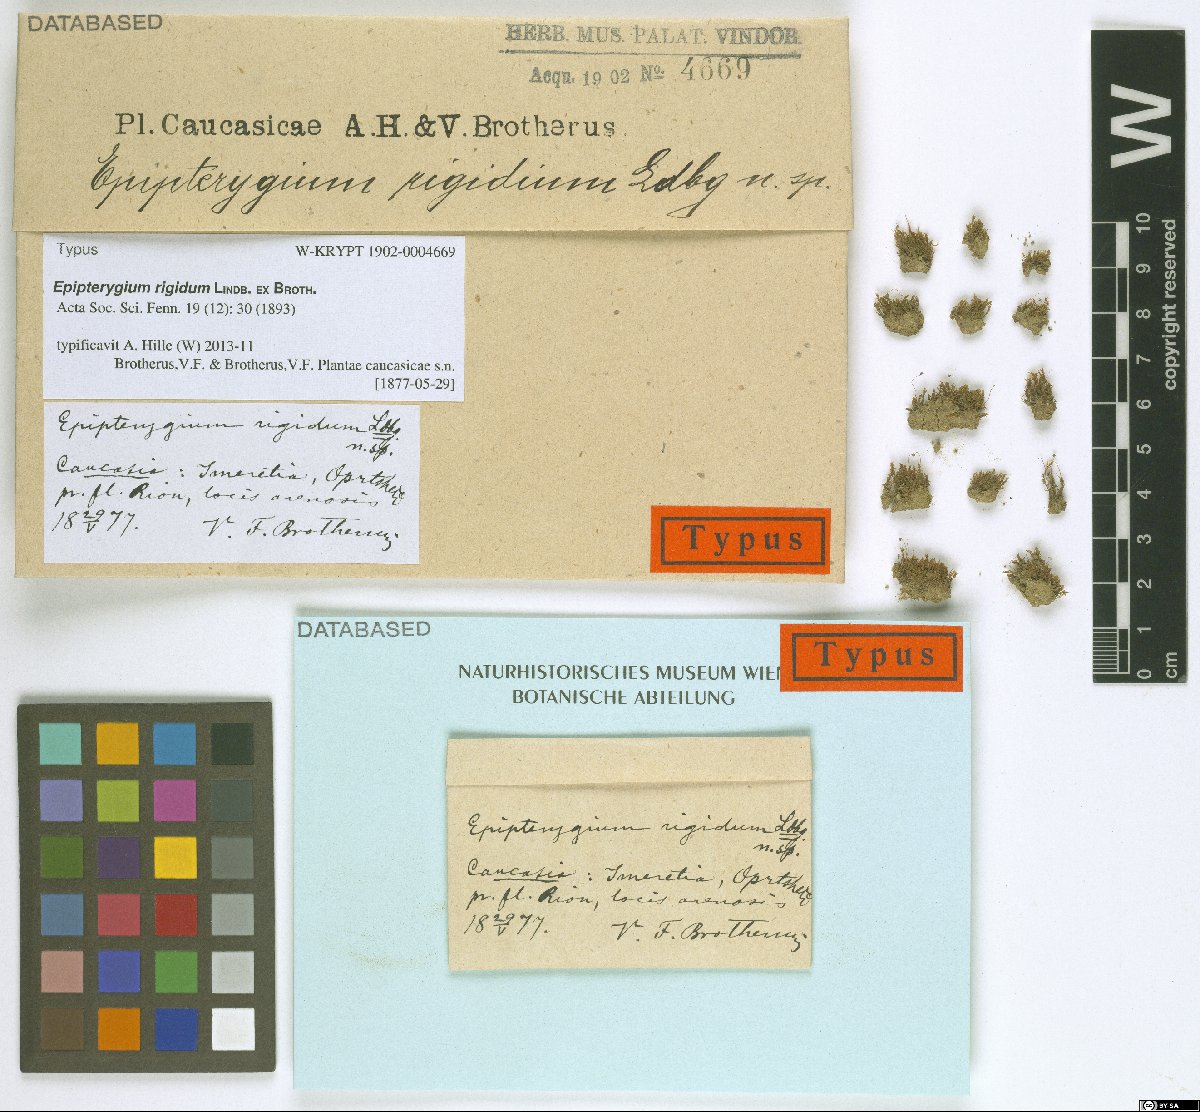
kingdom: Plantae
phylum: Bryophyta
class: Bryopsida
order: Bryales
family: Bryaceae
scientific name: Bryaceae
